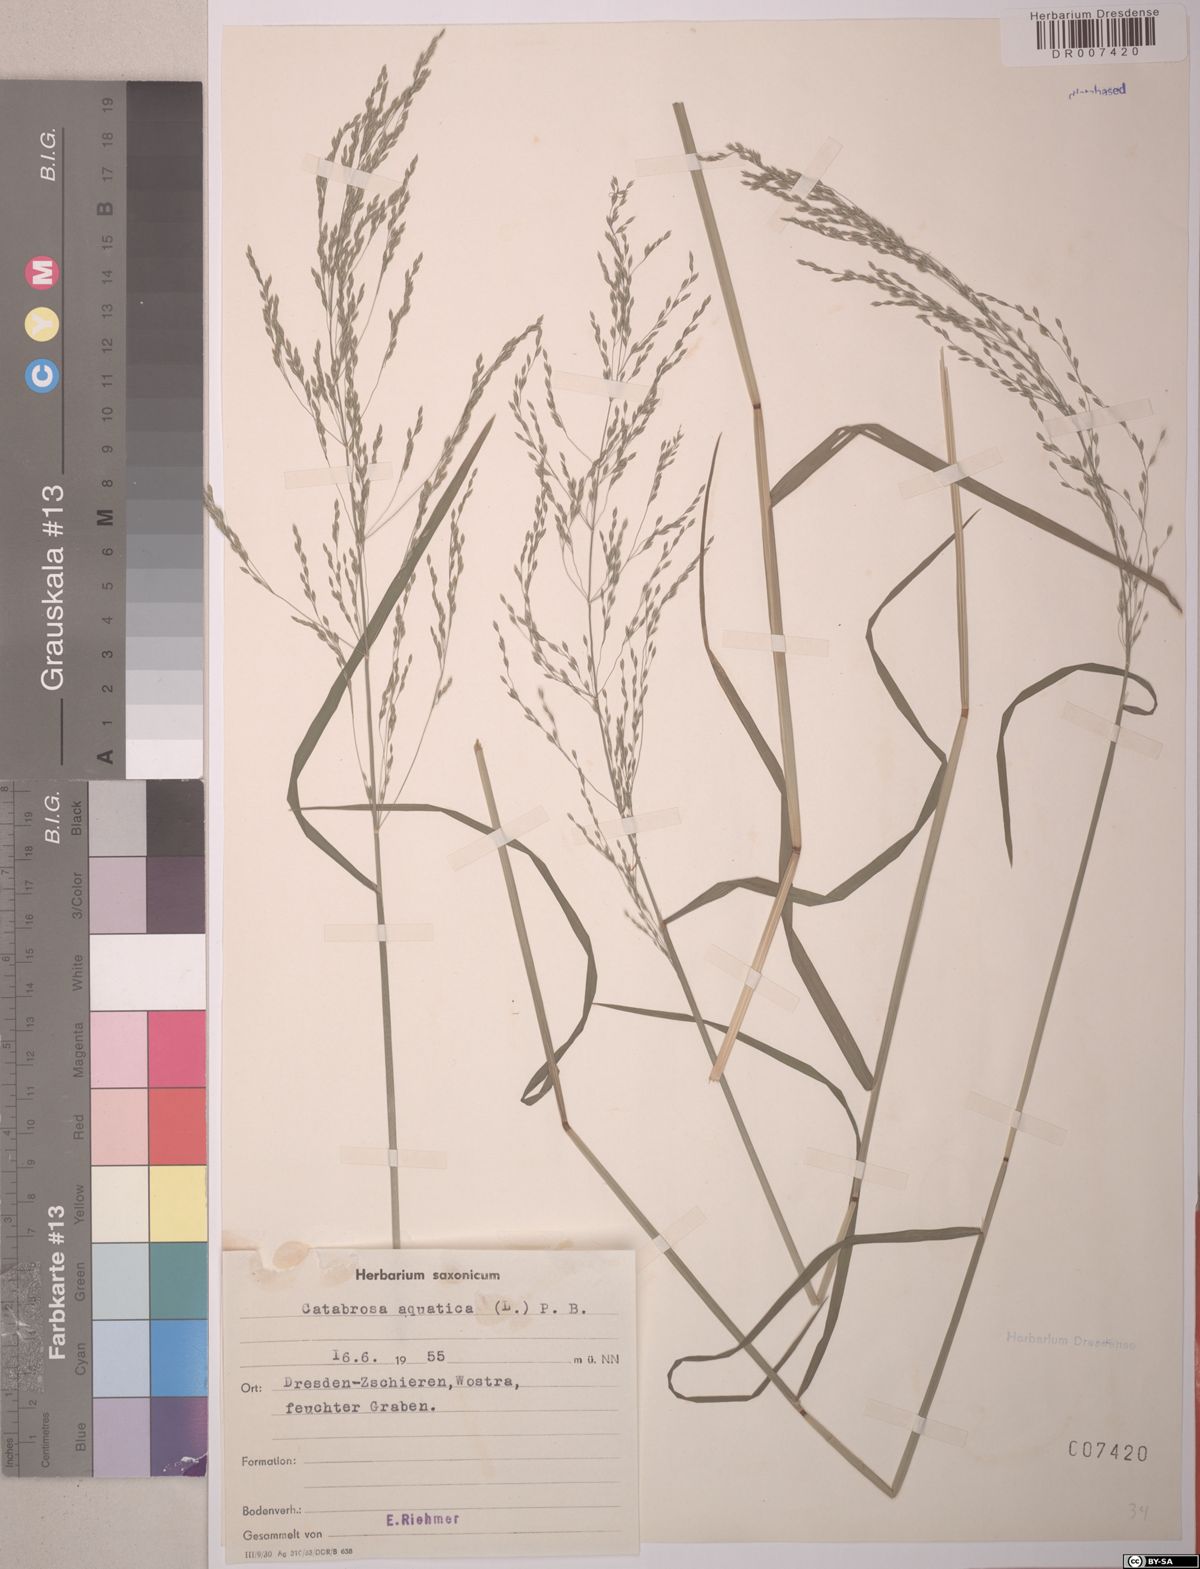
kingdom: Plantae
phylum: Tracheophyta
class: Liliopsida
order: Poales
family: Poaceae
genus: Catabrosa
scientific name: Catabrosa aquatica
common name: Whorl-grass
